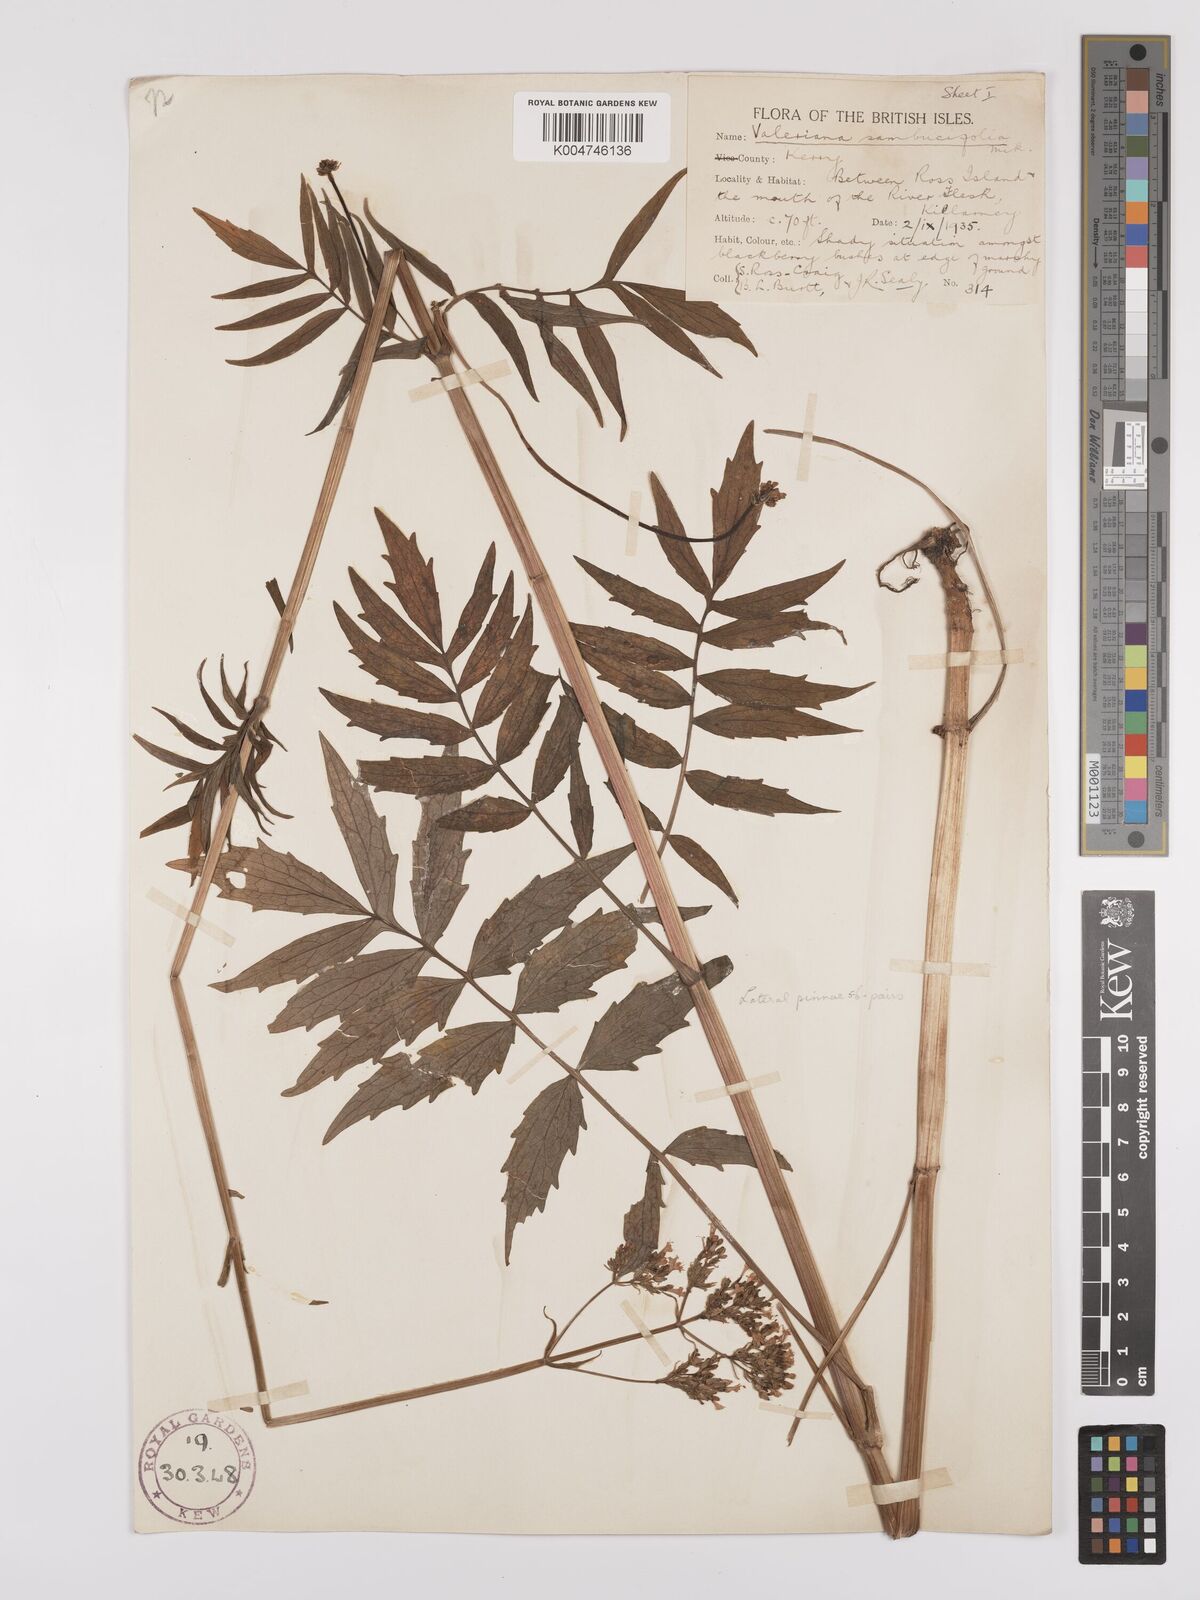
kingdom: Plantae
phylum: Tracheophyta
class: Magnoliopsida
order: Dipsacales
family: Caprifoliaceae
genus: Valeriana
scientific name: Valeriana excelsa
